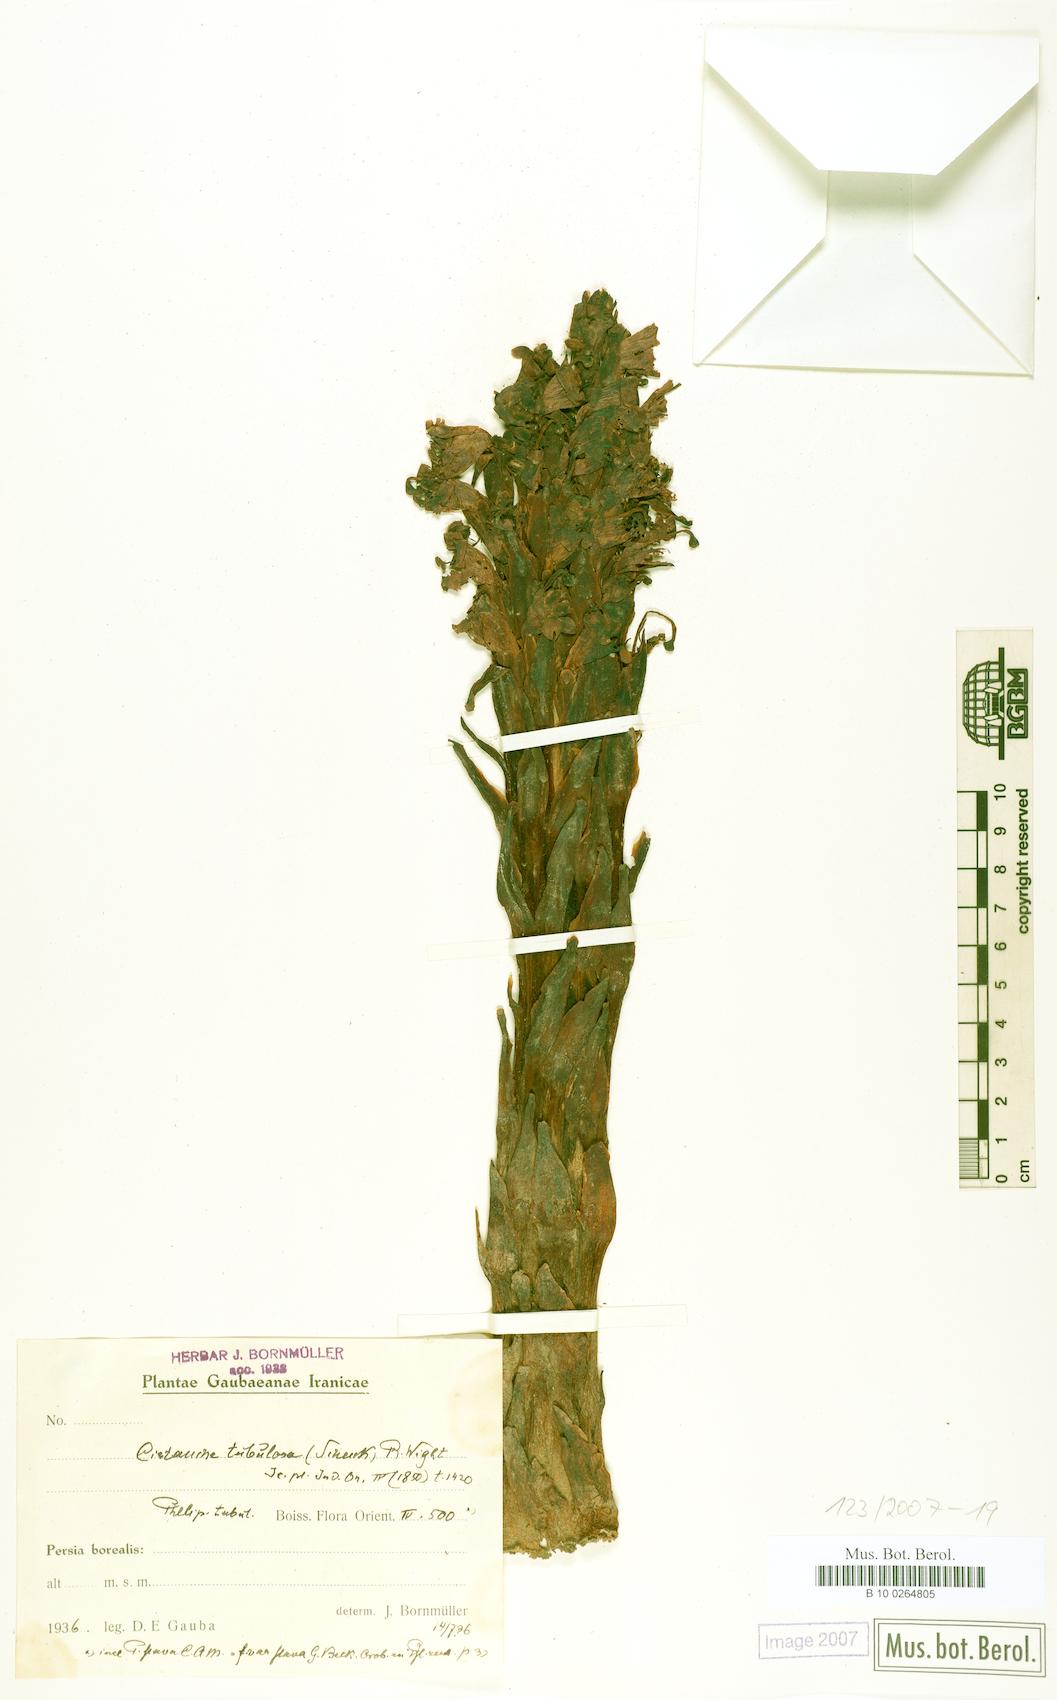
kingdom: Plantae
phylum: Tracheophyta
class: Magnoliopsida
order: Lamiales
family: Orobanchaceae
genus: Cistanche
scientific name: Cistanche laxiflora
